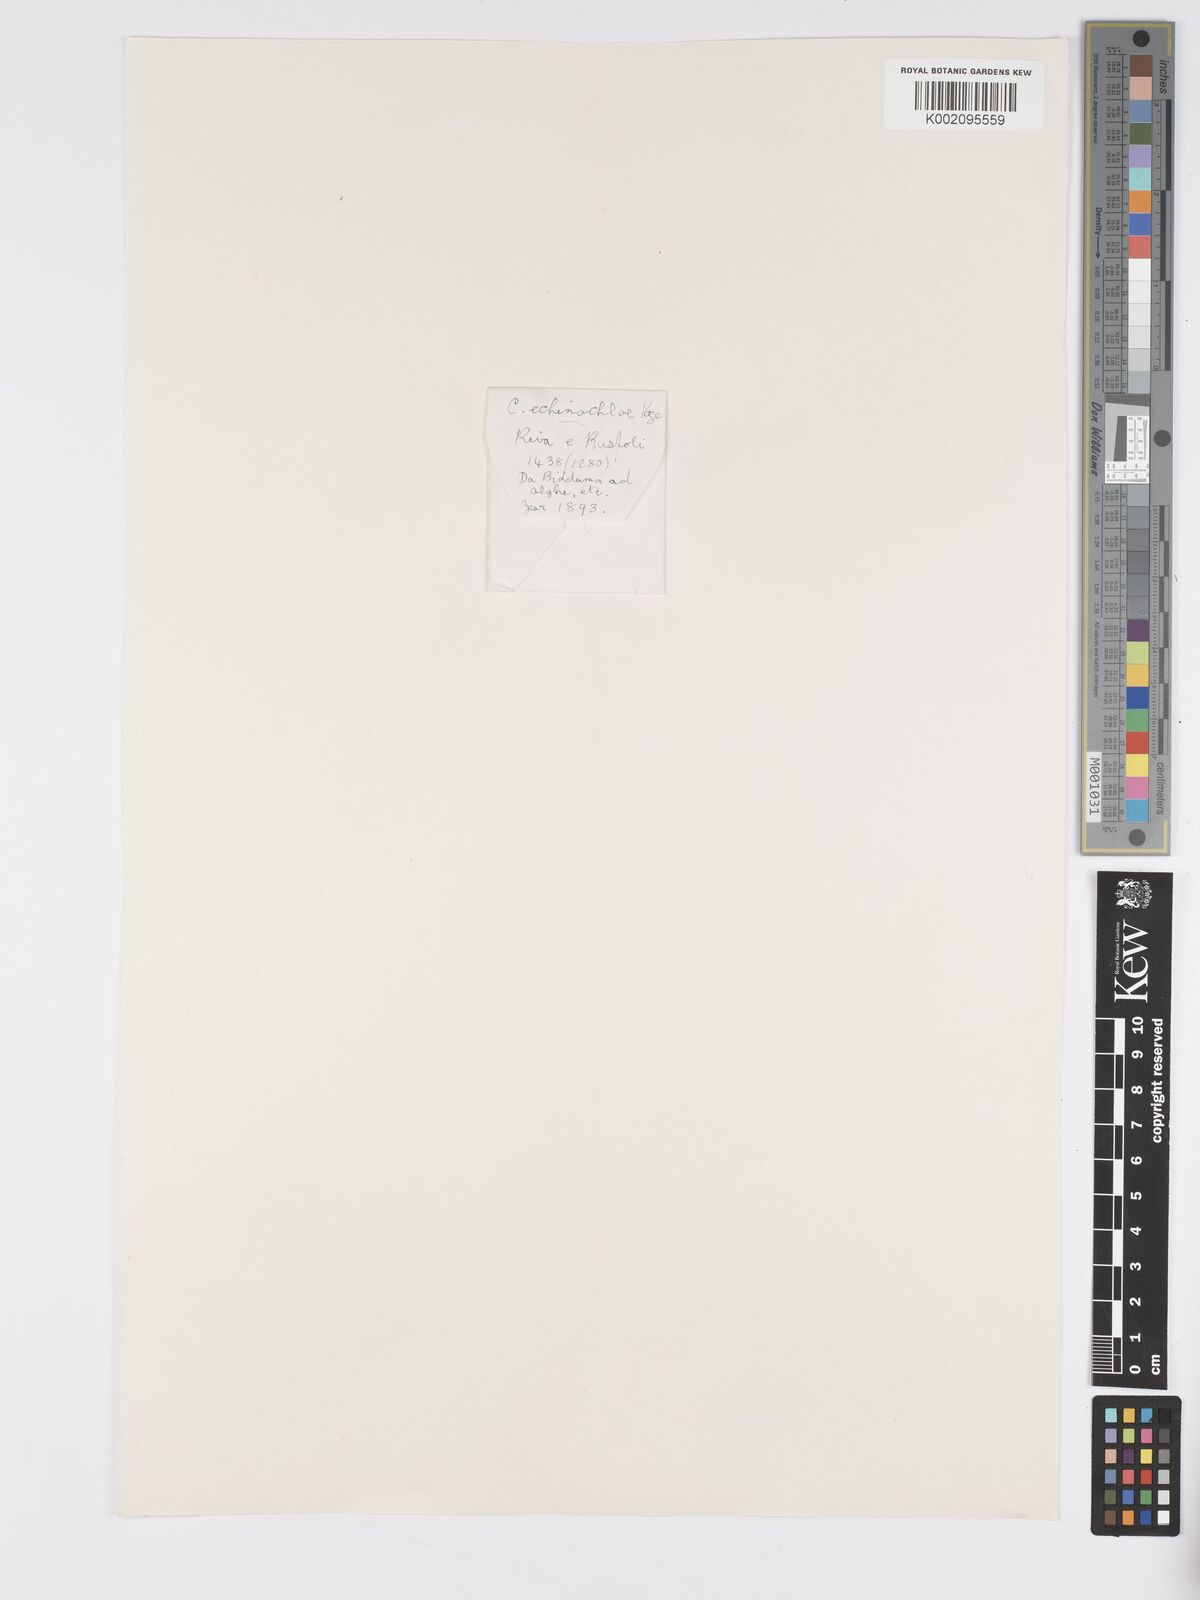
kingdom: Plantae
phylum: Tracheophyta
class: Liliopsida
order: Poales
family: Cyperaceae
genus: Carex
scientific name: Carex echinochloe
